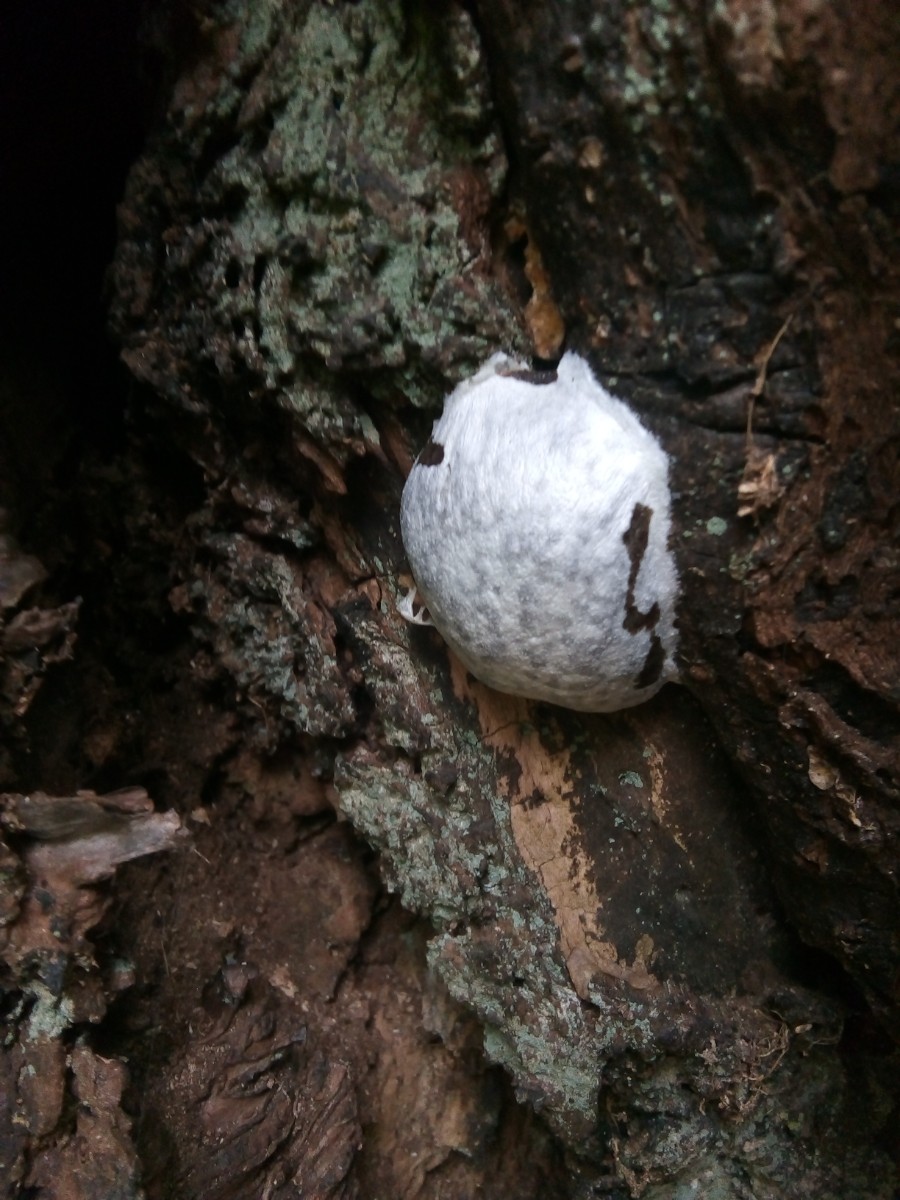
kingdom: Protozoa
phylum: Mycetozoa
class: Myxomycetes
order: Cribrariales
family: Tubiferaceae
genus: Reticularia
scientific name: Reticularia lycoperdon
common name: skinnende støvpude
